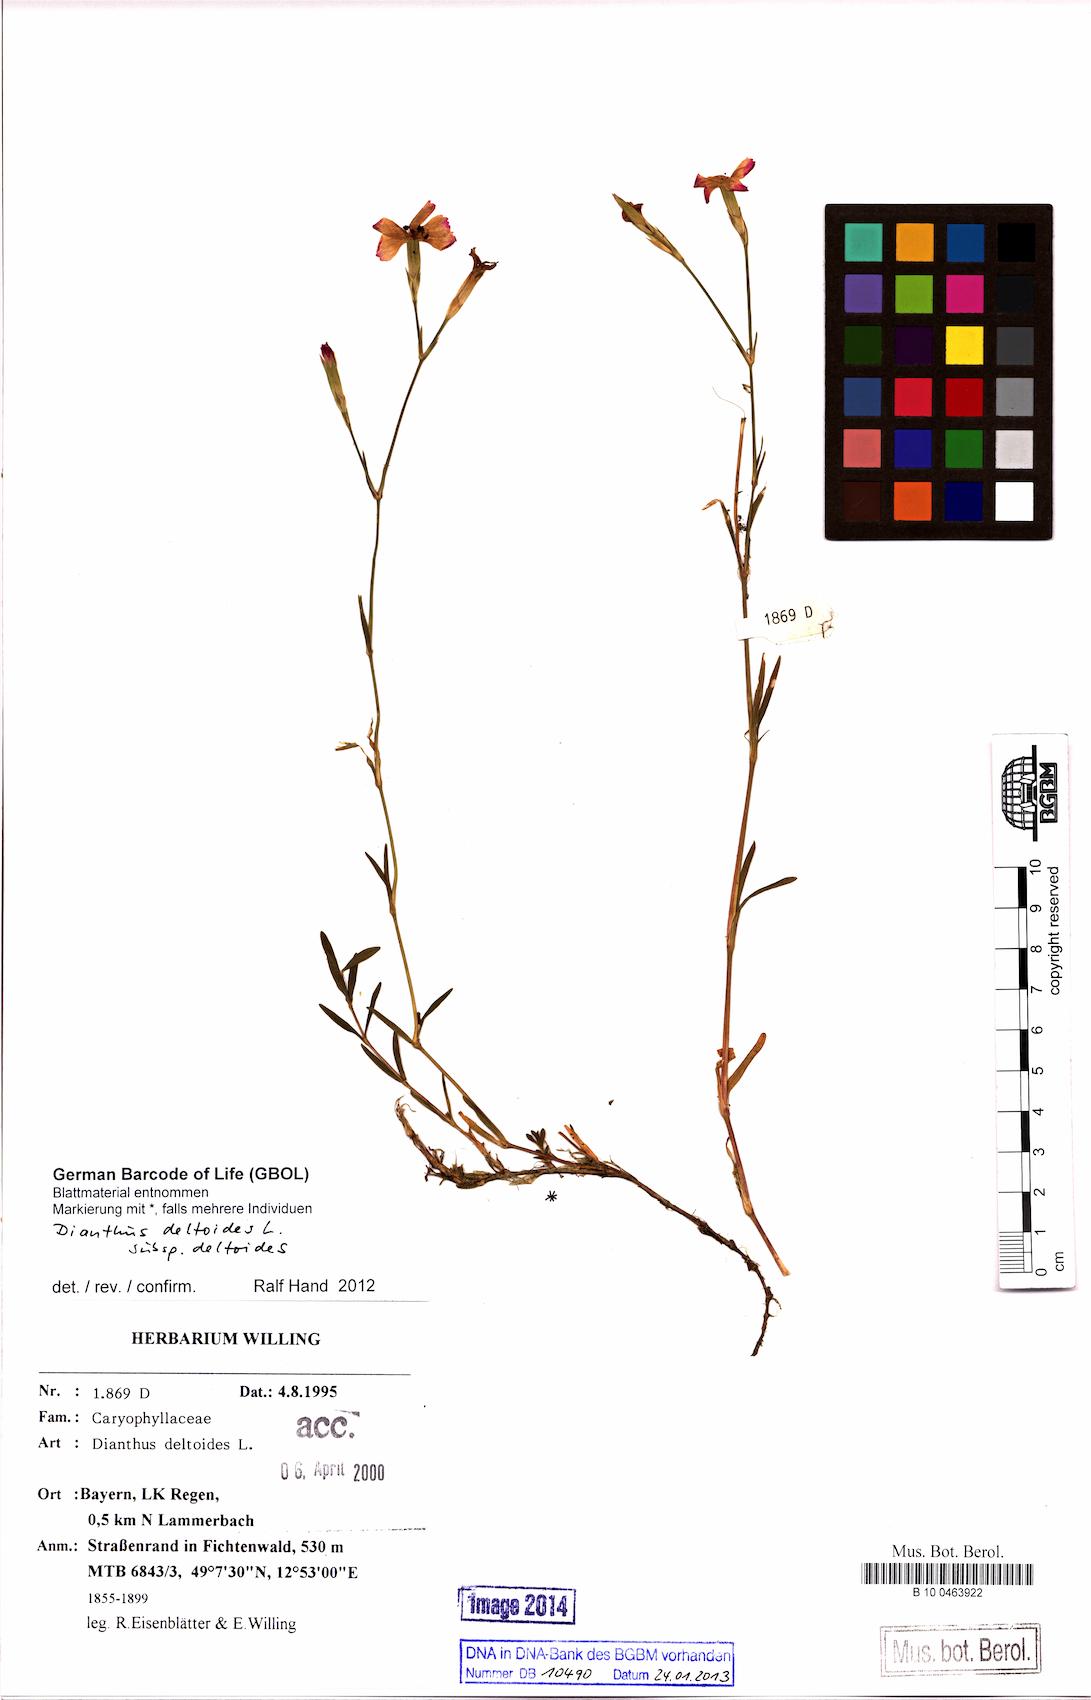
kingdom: Plantae
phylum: Tracheophyta
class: Magnoliopsida
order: Caryophyllales
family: Caryophyllaceae
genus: Dianthus
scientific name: Dianthus deltoides
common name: Maiden pink
